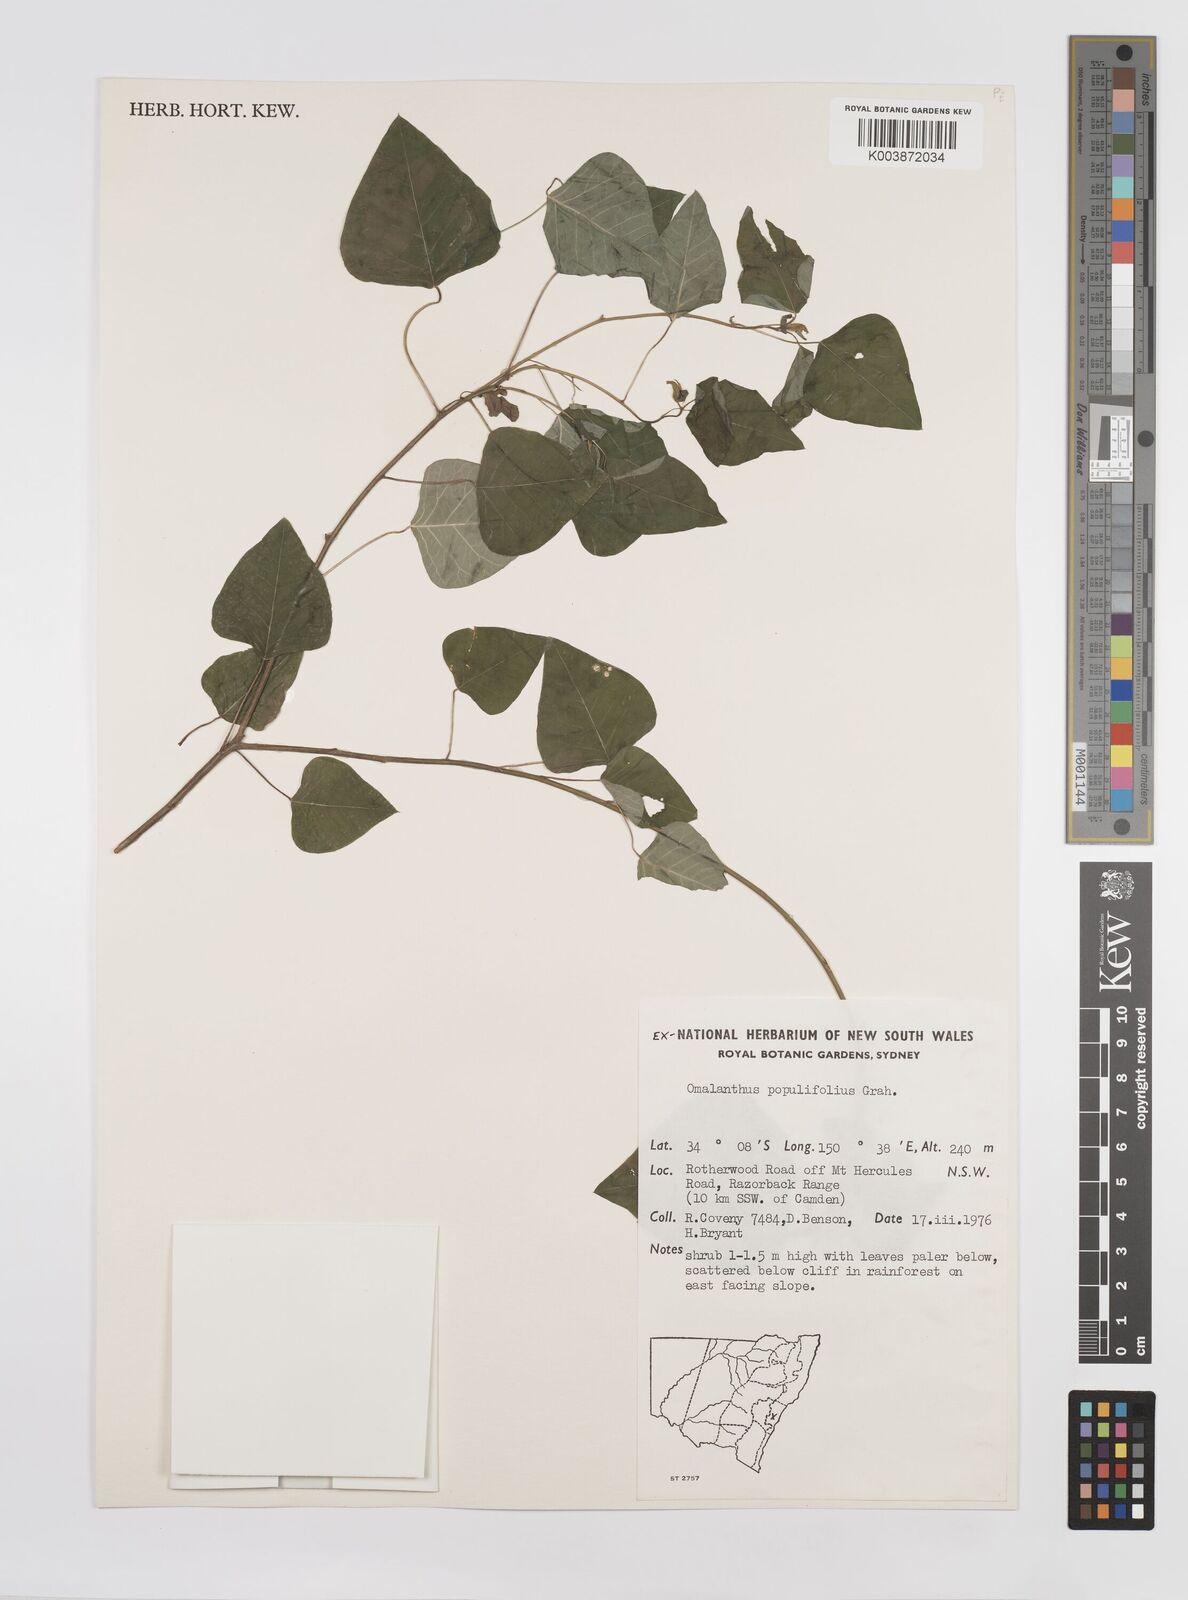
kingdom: Plantae
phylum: Tracheophyta
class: Magnoliopsida
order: Malpighiales
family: Euphorbiaceae
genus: Homalanthus
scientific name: Homalanthus populifolius
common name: Queensland poplar
